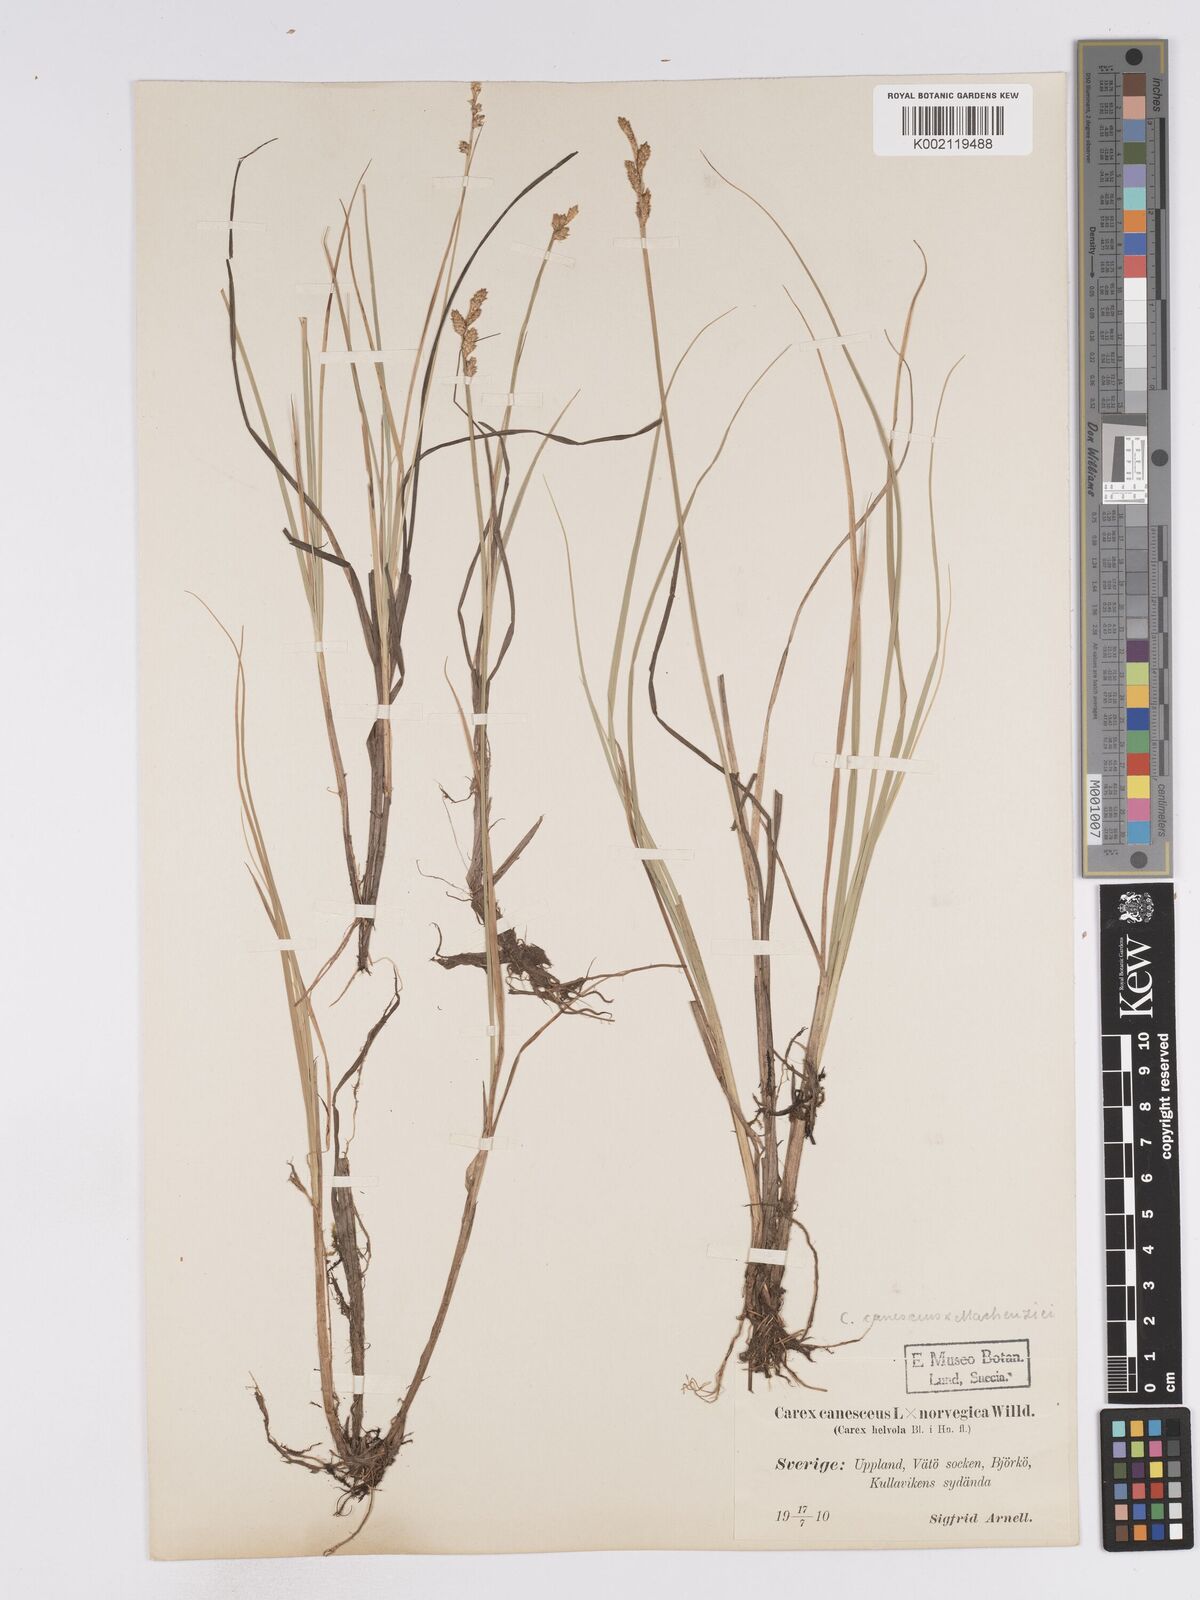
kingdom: Plantae
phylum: Tracheophyta
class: Liliopsida
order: Poales
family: Cyperaceae
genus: Carex
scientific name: Carex mackenziei
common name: Mackenzie's sedge
